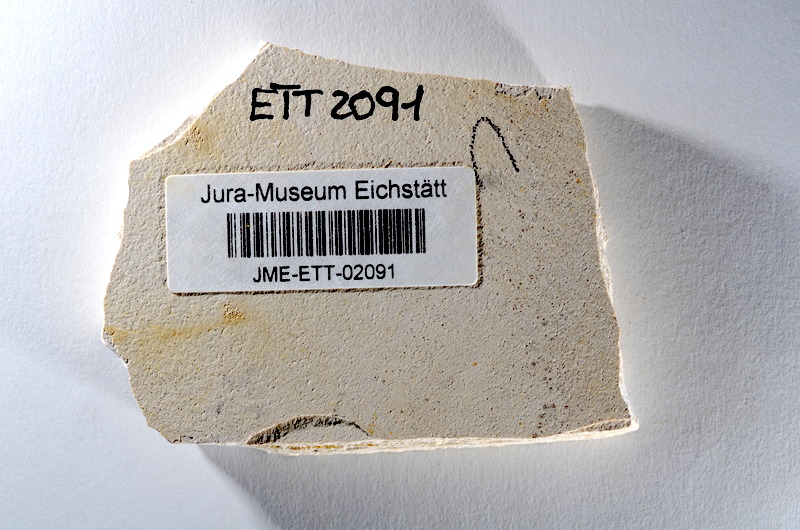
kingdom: Animalia
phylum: Chordata
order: Salmoniformes
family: Orthogonikleithridae
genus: Orthogonikleithrus
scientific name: Orthogonikleithrus hoelli
